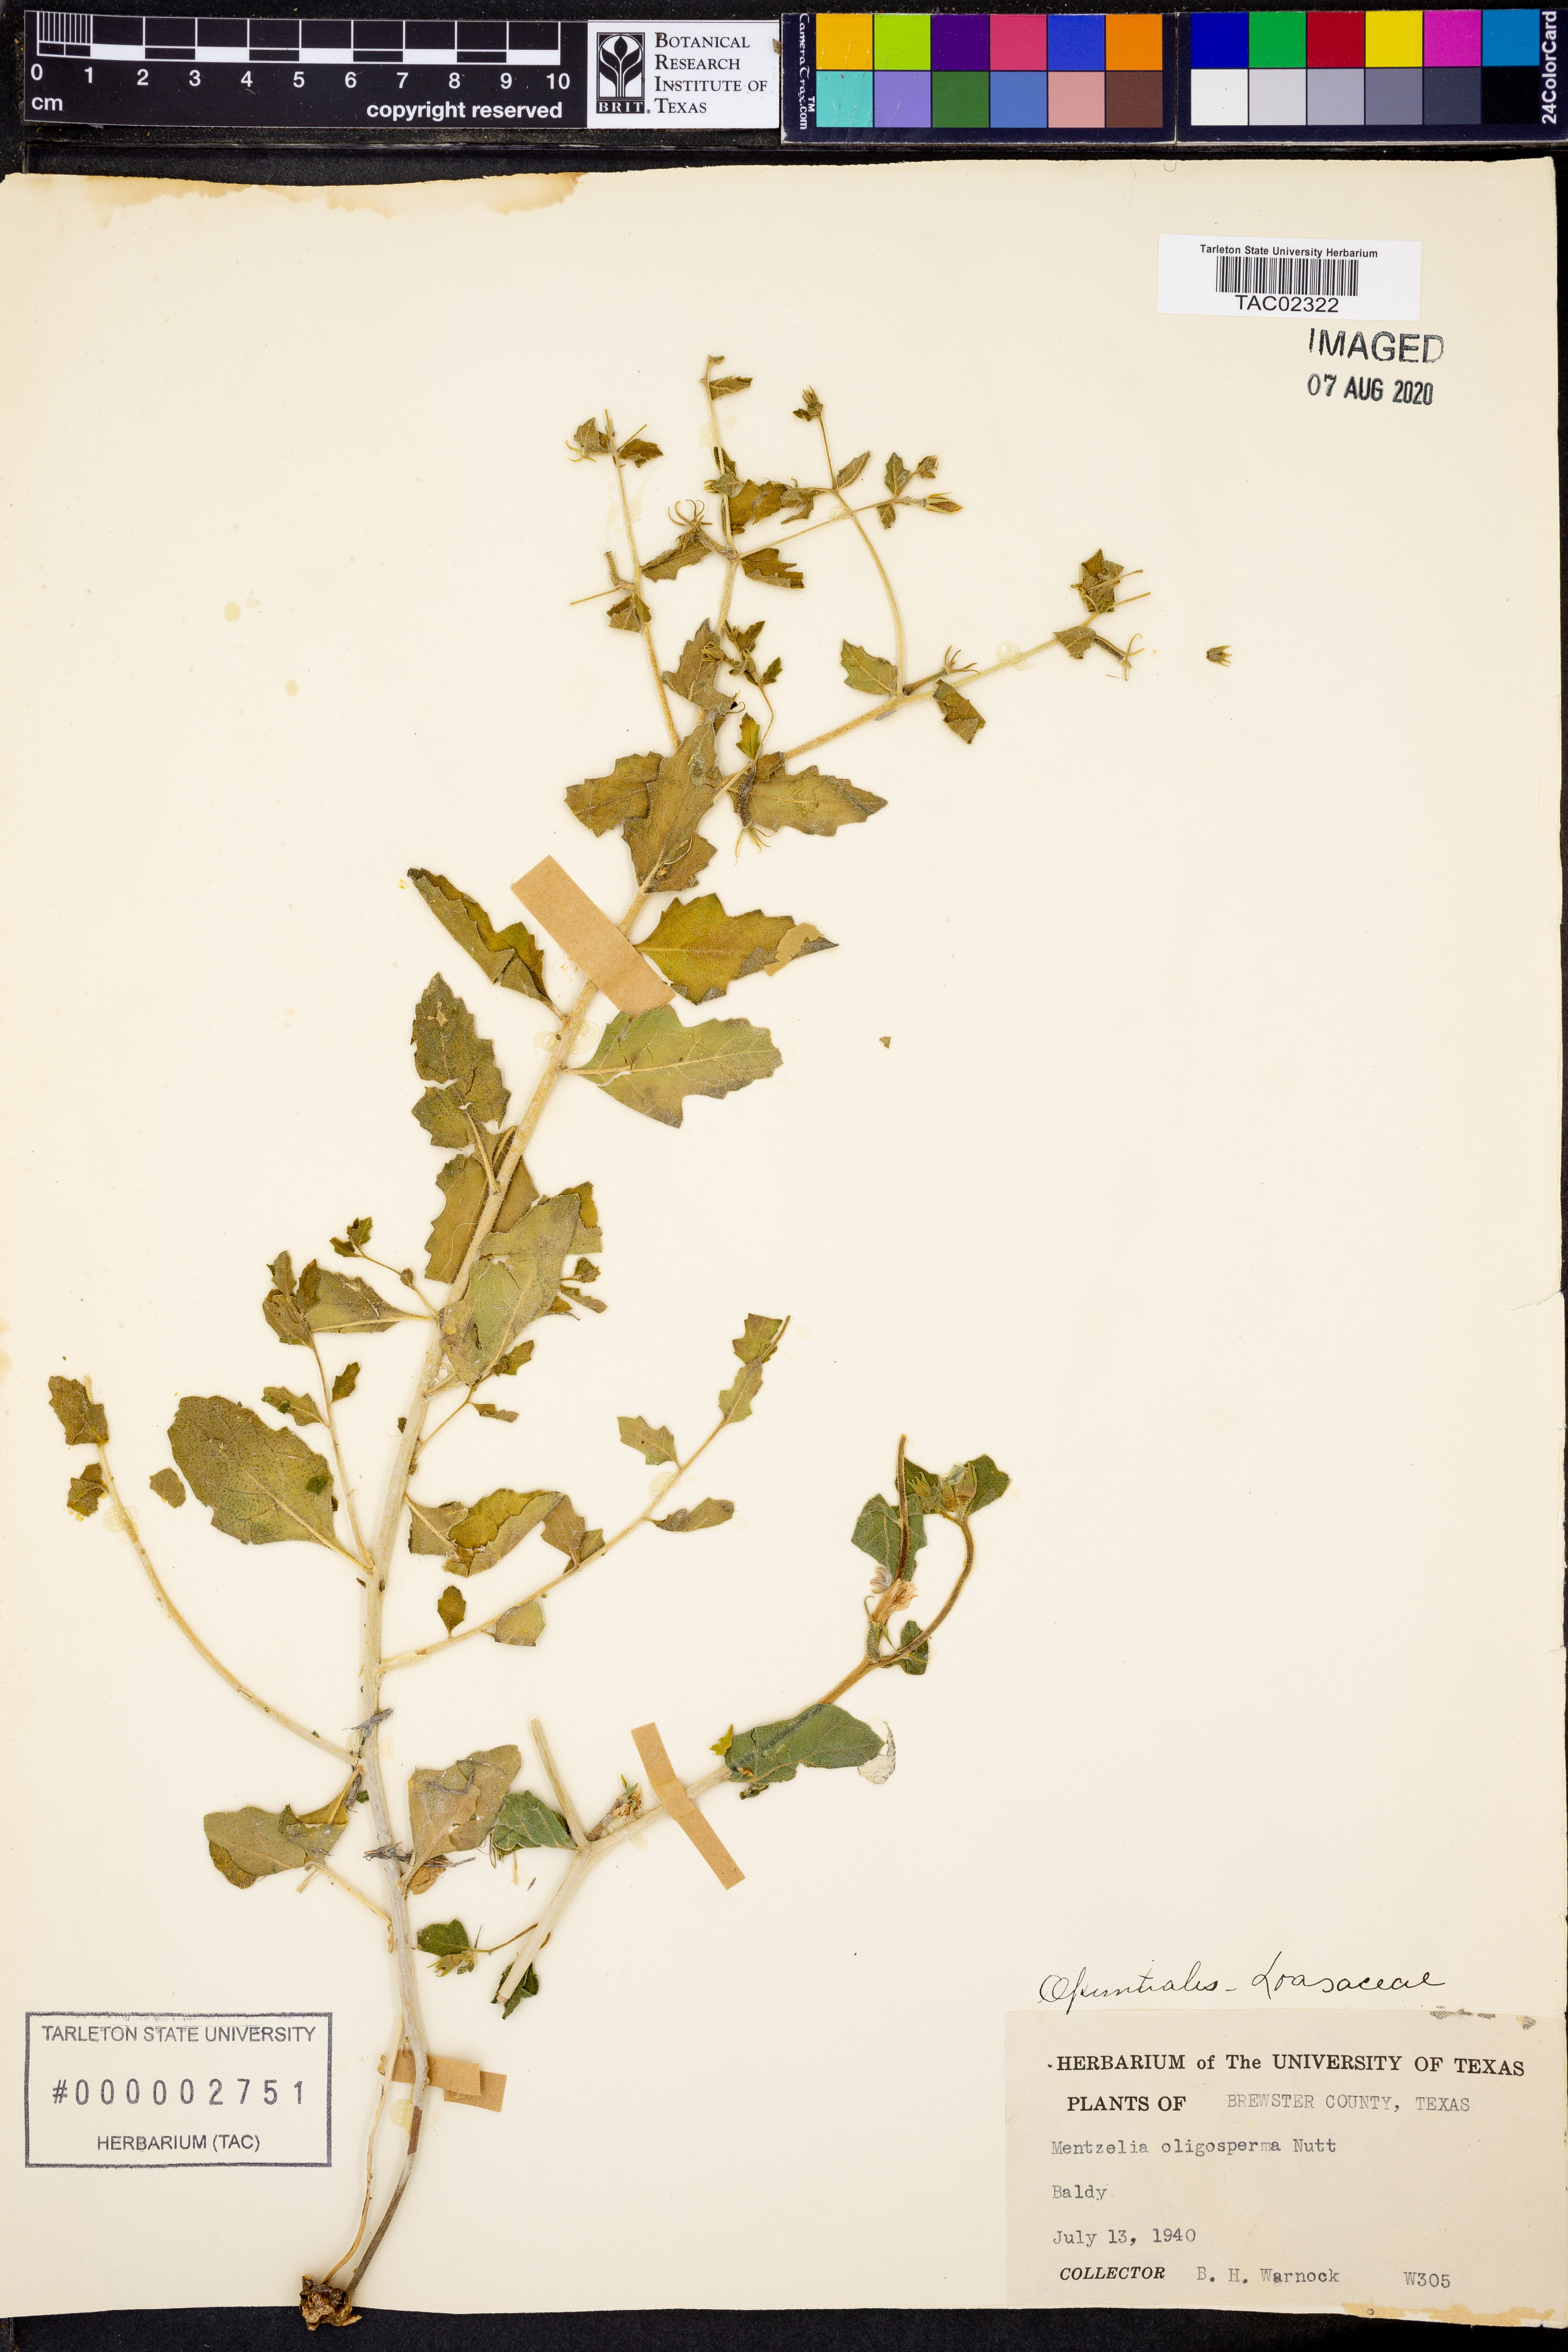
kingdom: Plantae
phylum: Tracheophyta
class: Magnoliopsida
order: Cornales
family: Loasaceae
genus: Mentzelia
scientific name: Mentzelia oligosperma
